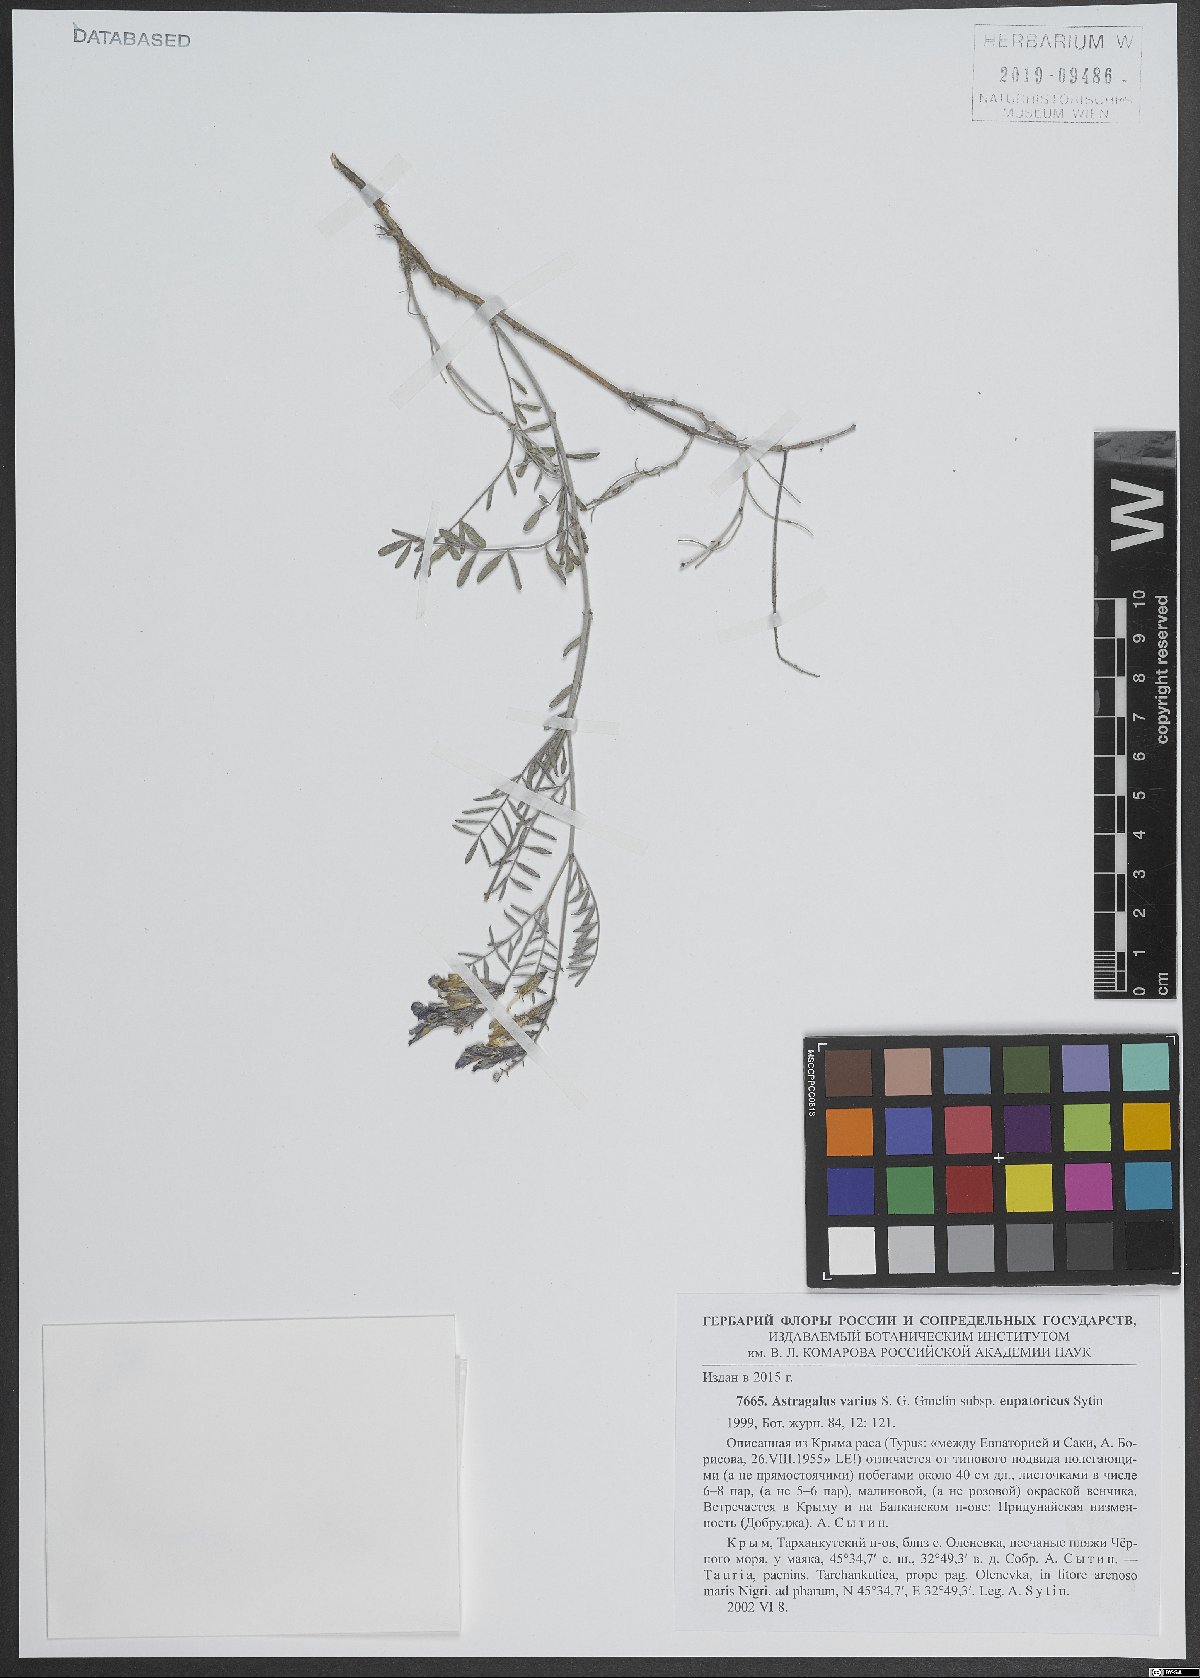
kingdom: Plantae
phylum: Tracheophyta
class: Magnoliopsida
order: Fabales
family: Fabaceae
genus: Astragalus
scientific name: Astragalus varius
